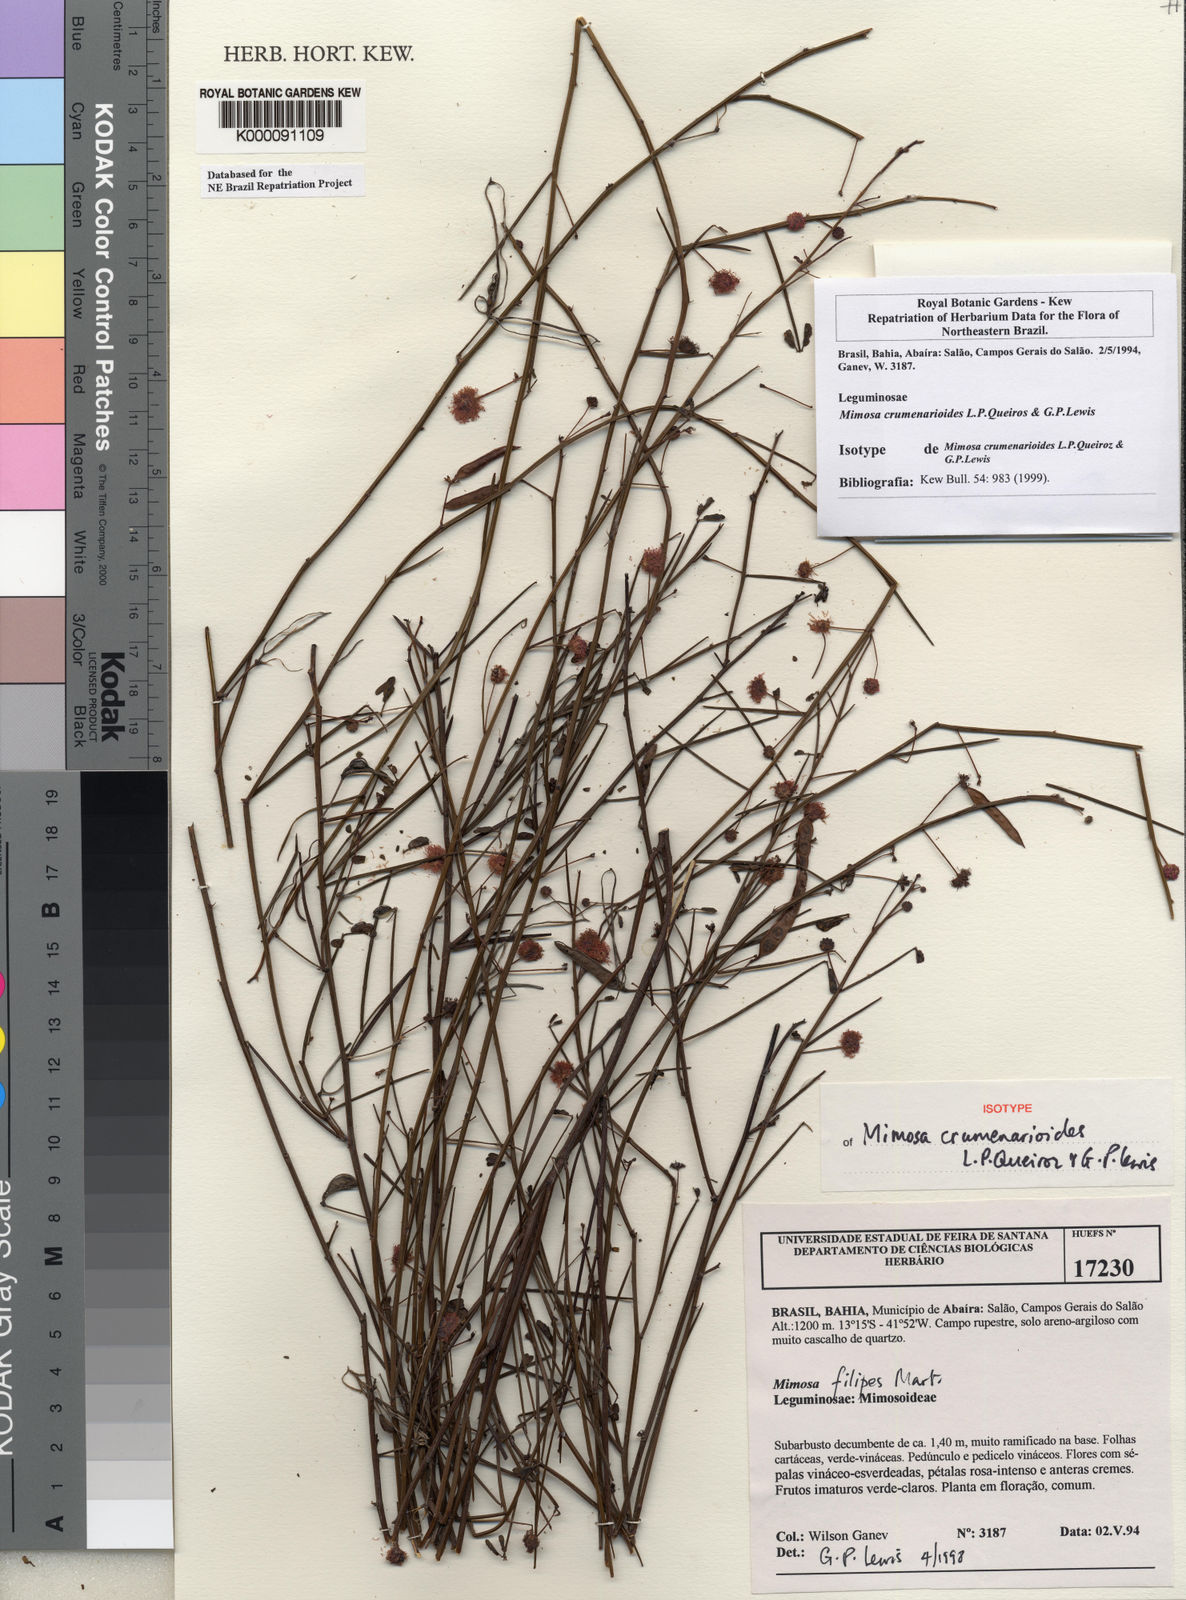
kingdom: Plantae
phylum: Tracheophyta
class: Magnoliopsida
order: Fabales
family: Fabaceae
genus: Mimosa
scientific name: Mimosa crumenarioides
